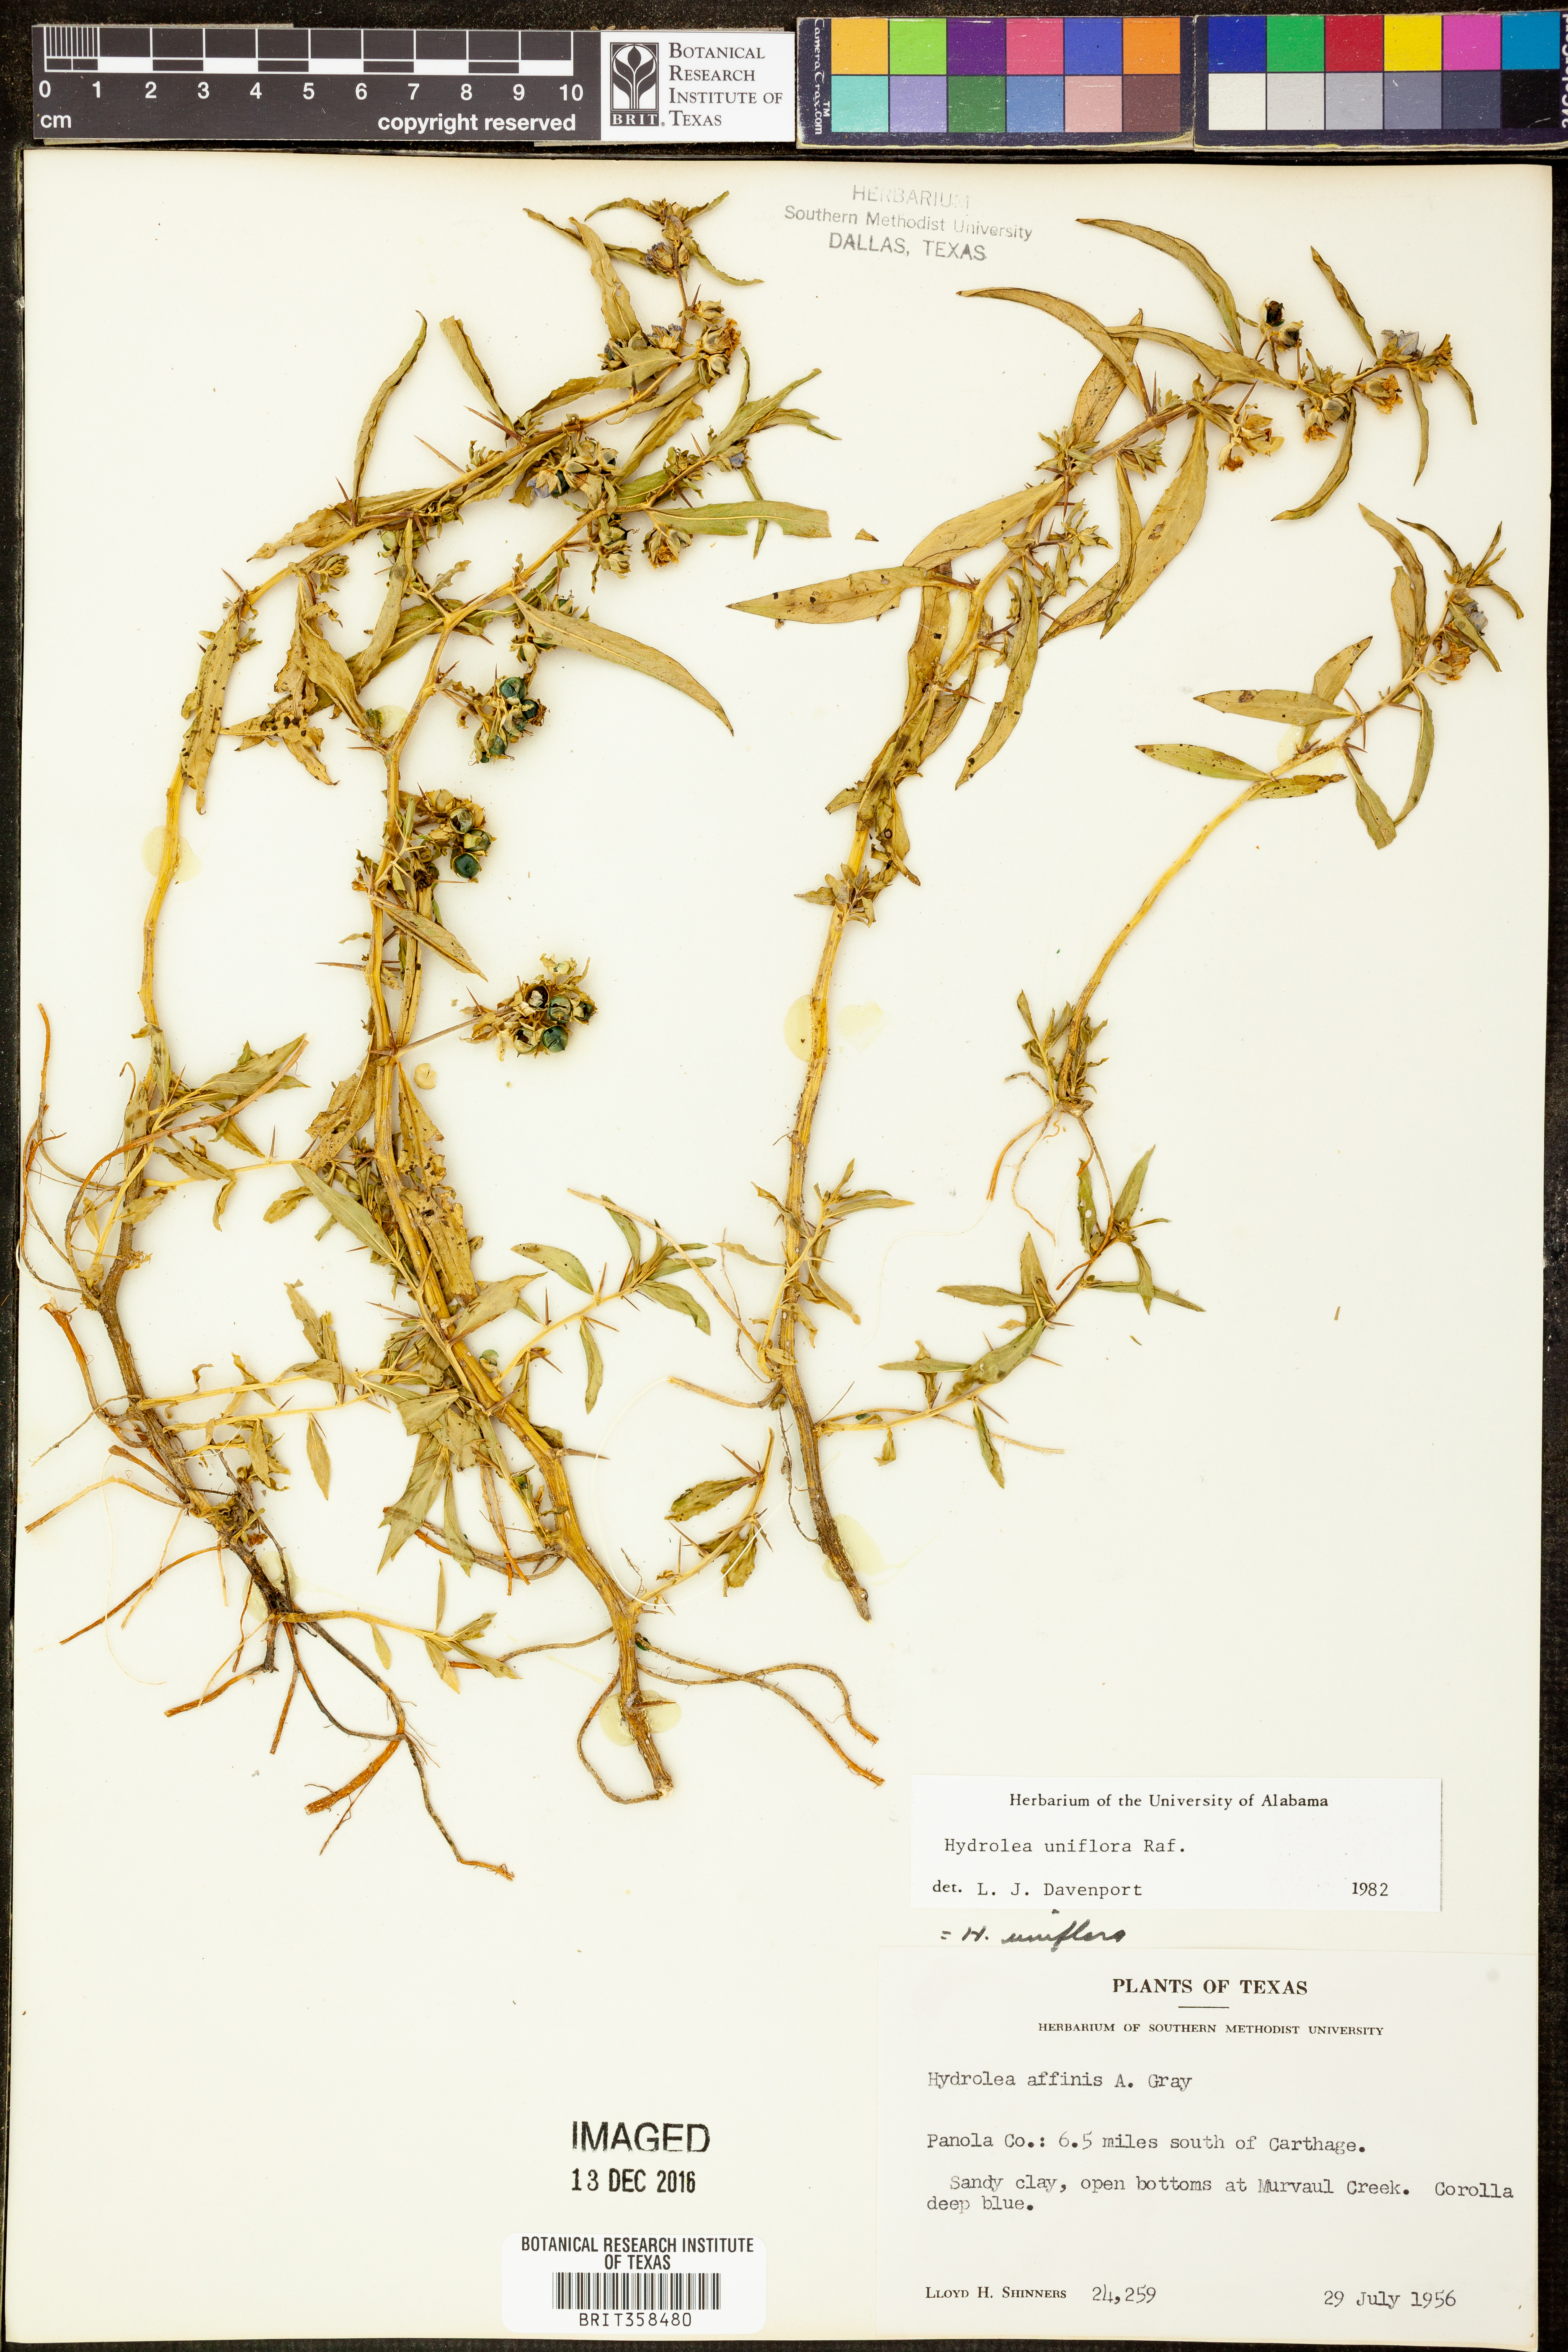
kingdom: Plantae
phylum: Tracheophyta
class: Magnoliopsida
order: Solanales
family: Hydroleaceae
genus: Hydrolea
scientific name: Hydrolea uniflora
